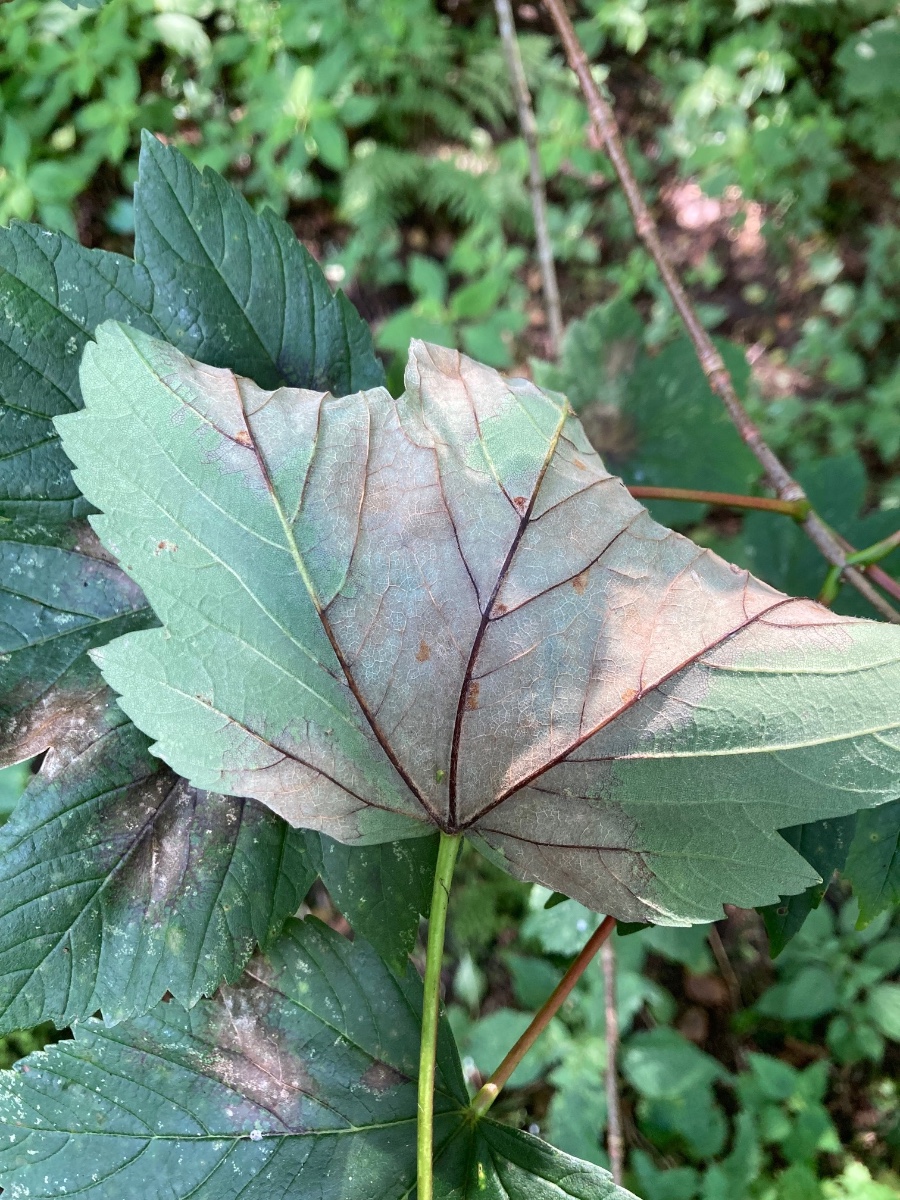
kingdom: Fungi
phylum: Ascomycota
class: Sordariomycetes
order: Diaporthales
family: Gnomoniaceae
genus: Pleuroceras
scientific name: Pleuroceras pseudoplatani
